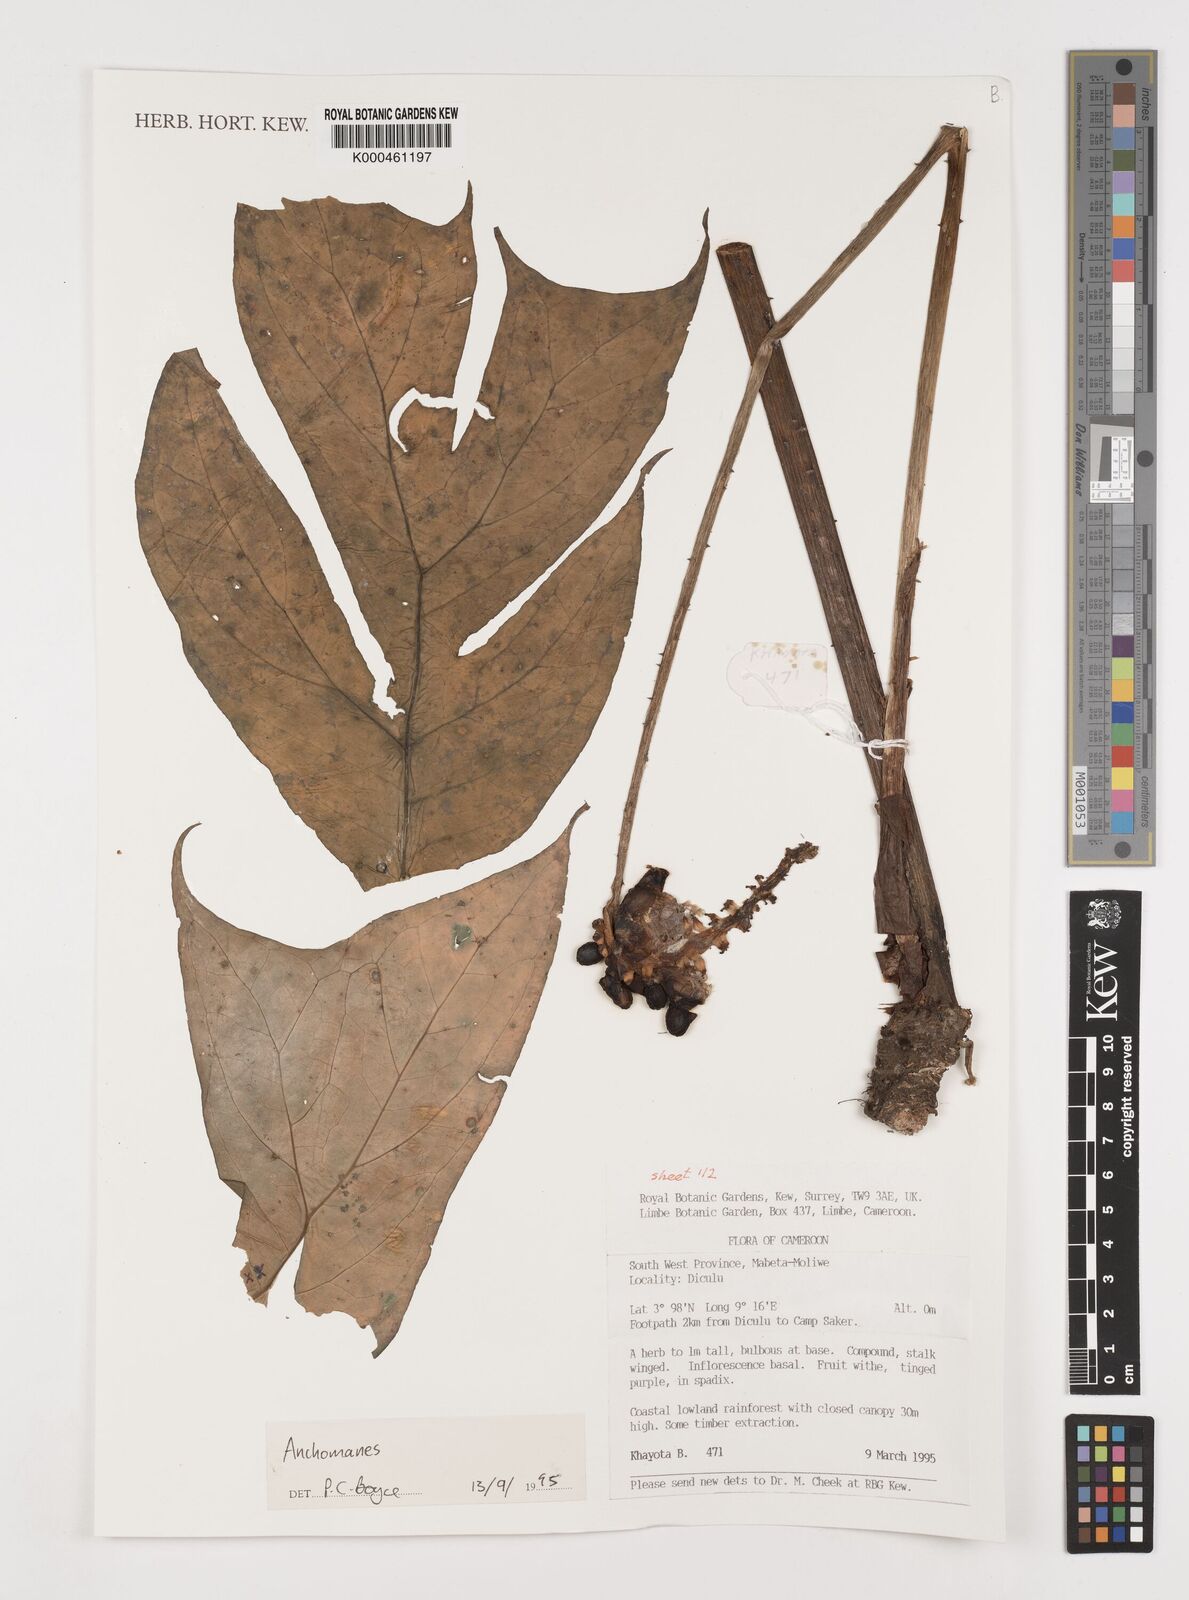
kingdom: Plantae
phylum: Tracheophyta
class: Liliopsida
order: Alismatales
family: Araceae
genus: Anchomanes
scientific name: Anchomanes
